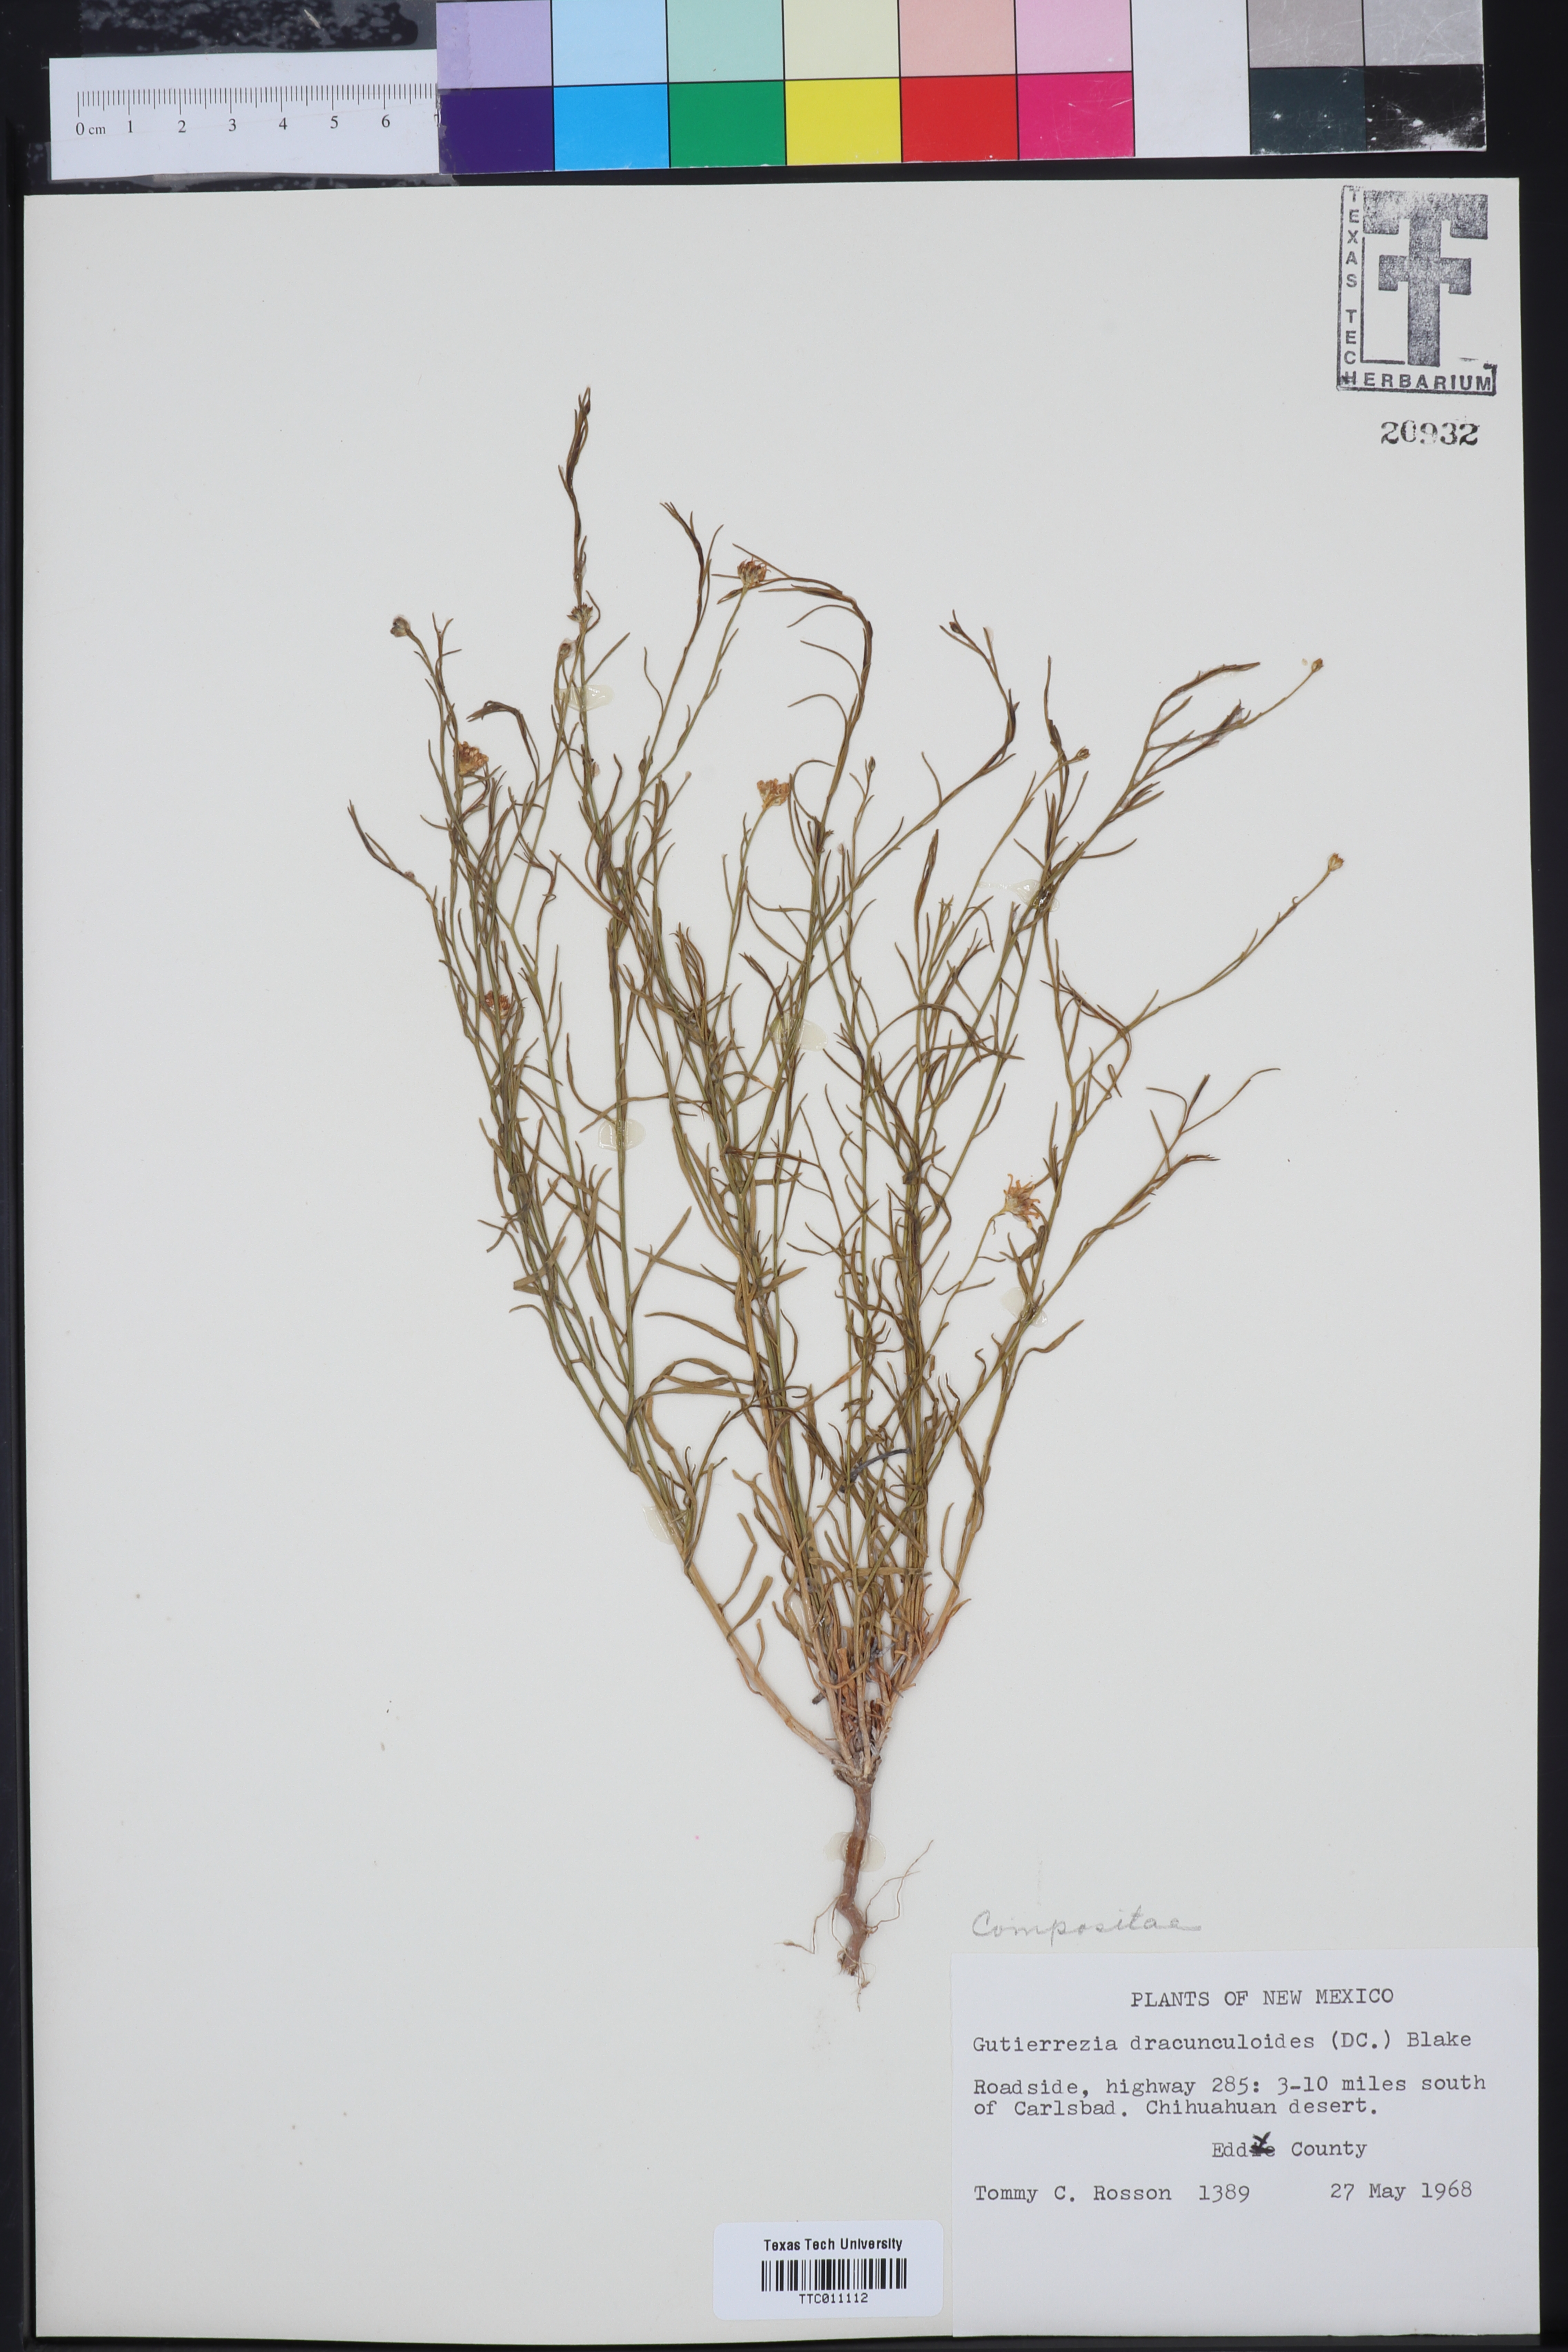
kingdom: Plantae
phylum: Tracheophyta
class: Magnoliopsida
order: Asterales
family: Asteraceae
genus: Amphiachyris
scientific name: Amphiachyris dracunculoides
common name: Broomweed
